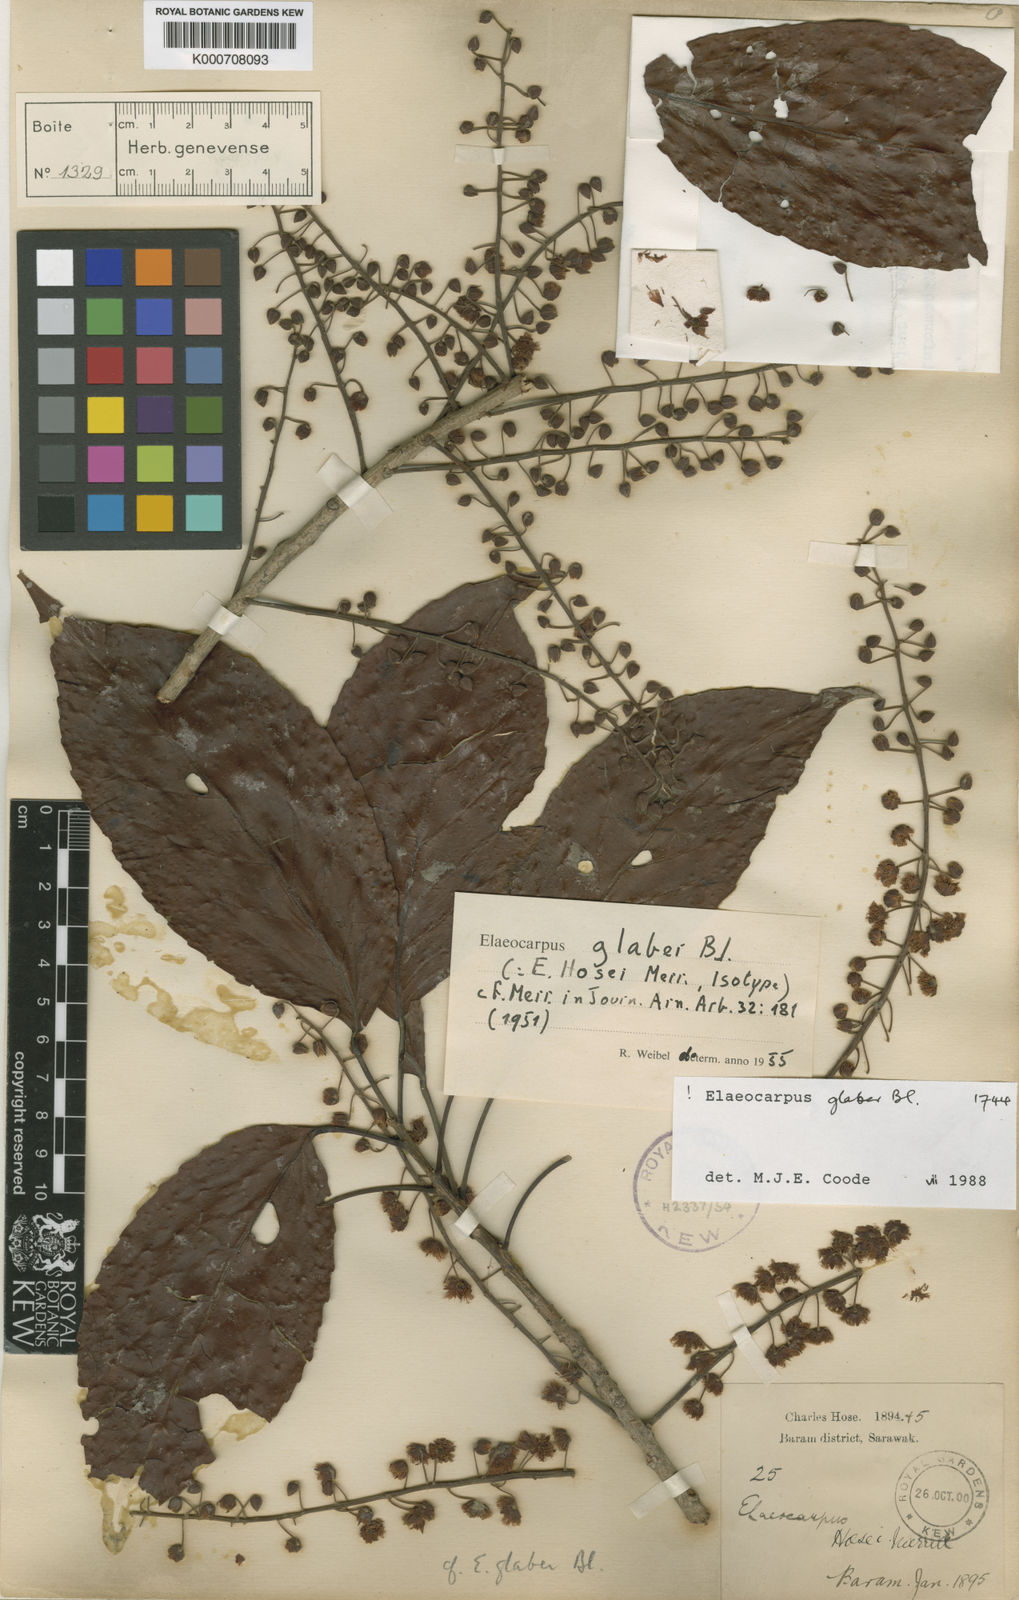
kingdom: Plantae
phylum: Tracheophyta
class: Magnoliopsida
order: Oxalidales
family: Elaeocarpaceae
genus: Elaeocarpus
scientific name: Elaeocarpus glaber
